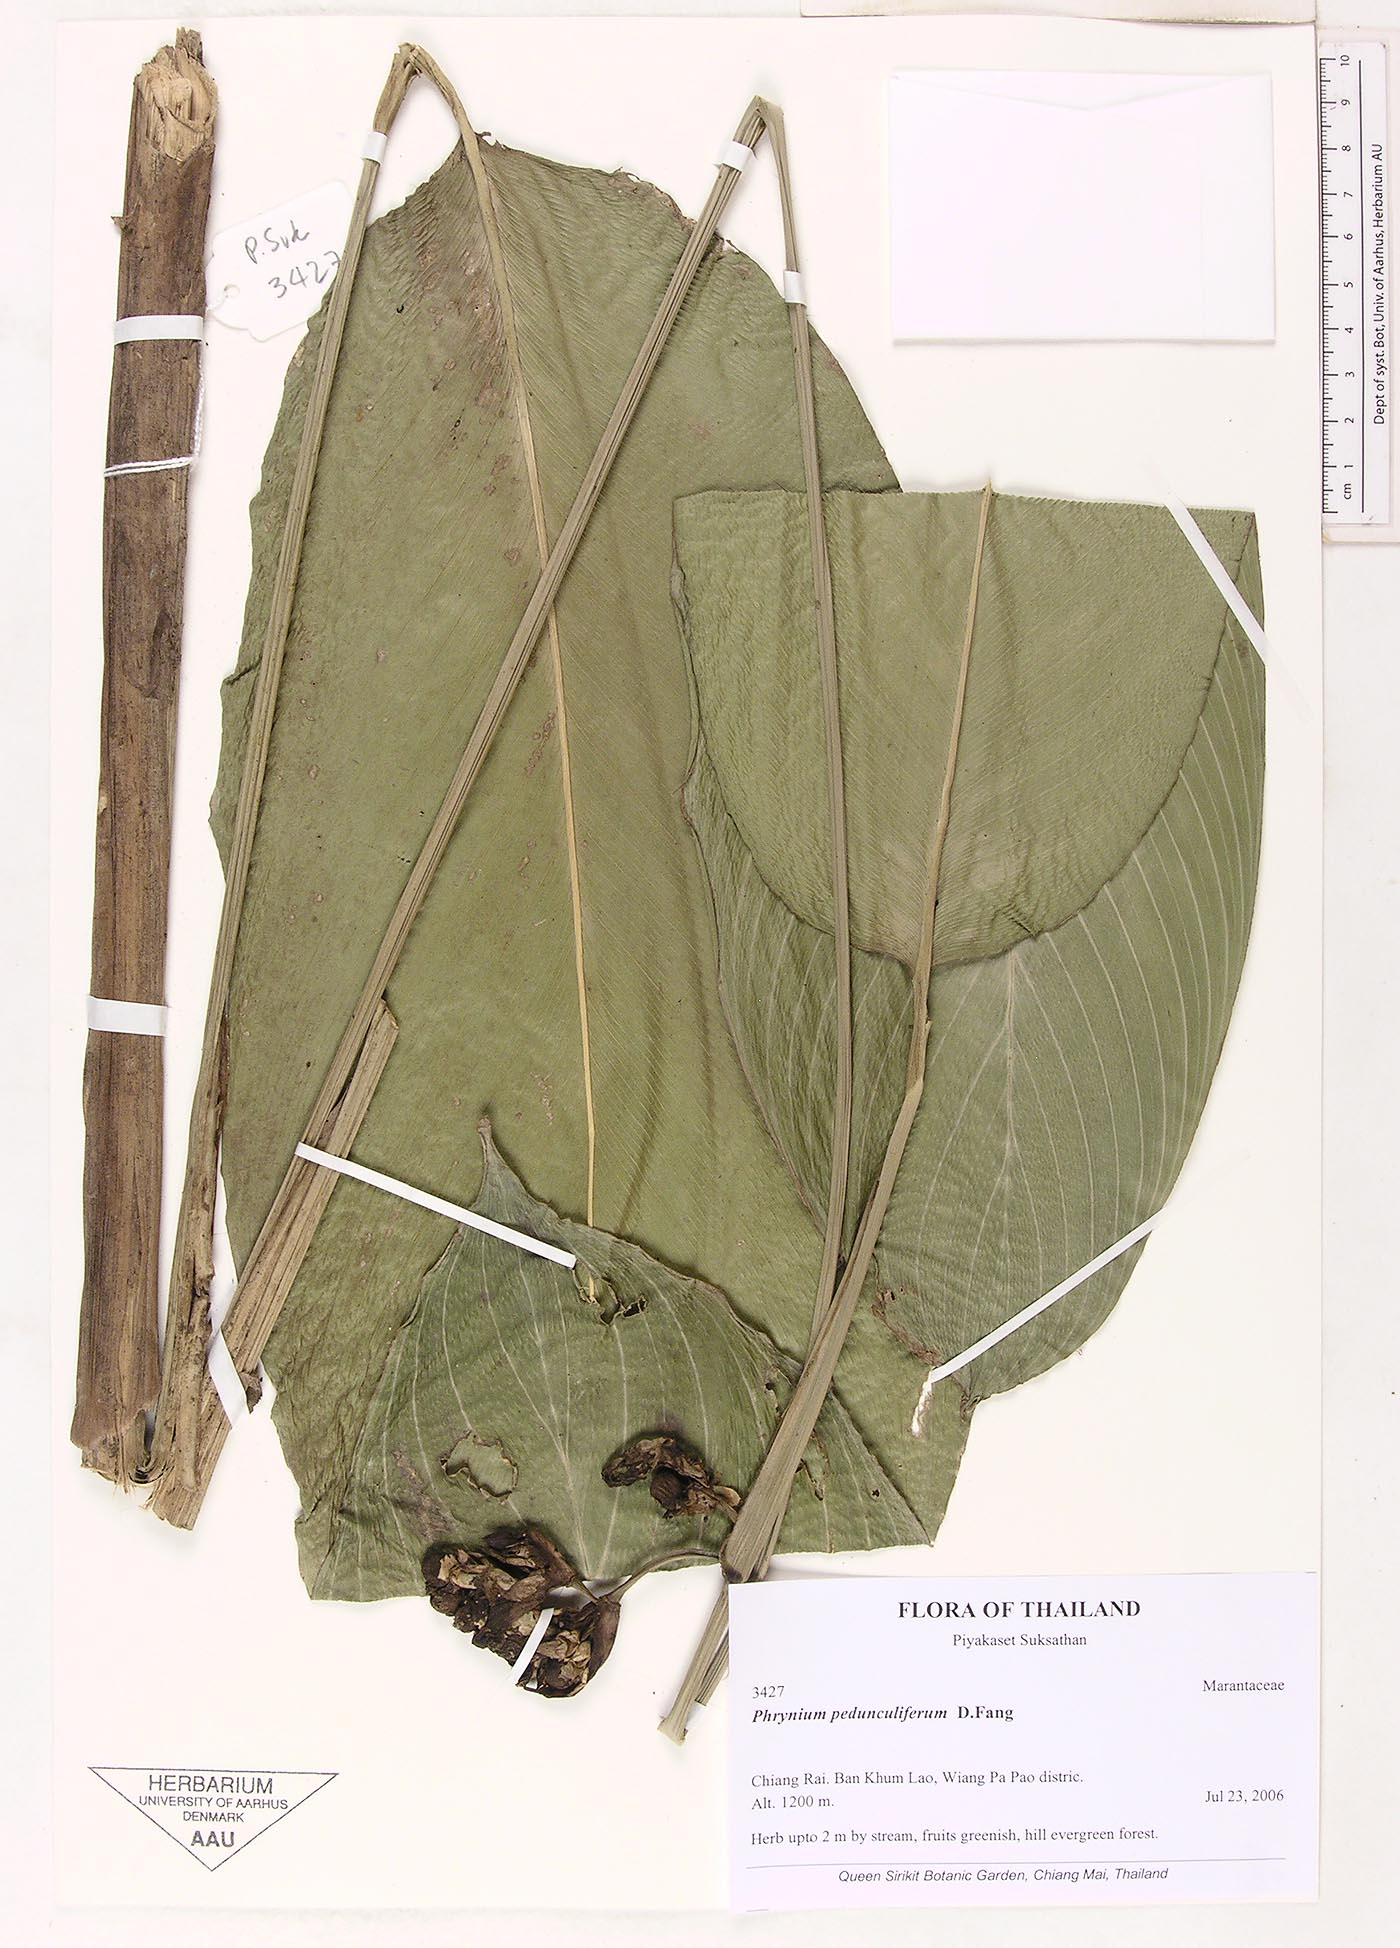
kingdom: Plantae
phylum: Tracheophyta
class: Liliopsida
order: Zingiberales
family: Marantaceae
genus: Phrynium
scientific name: Phrynium pedunculiferum
